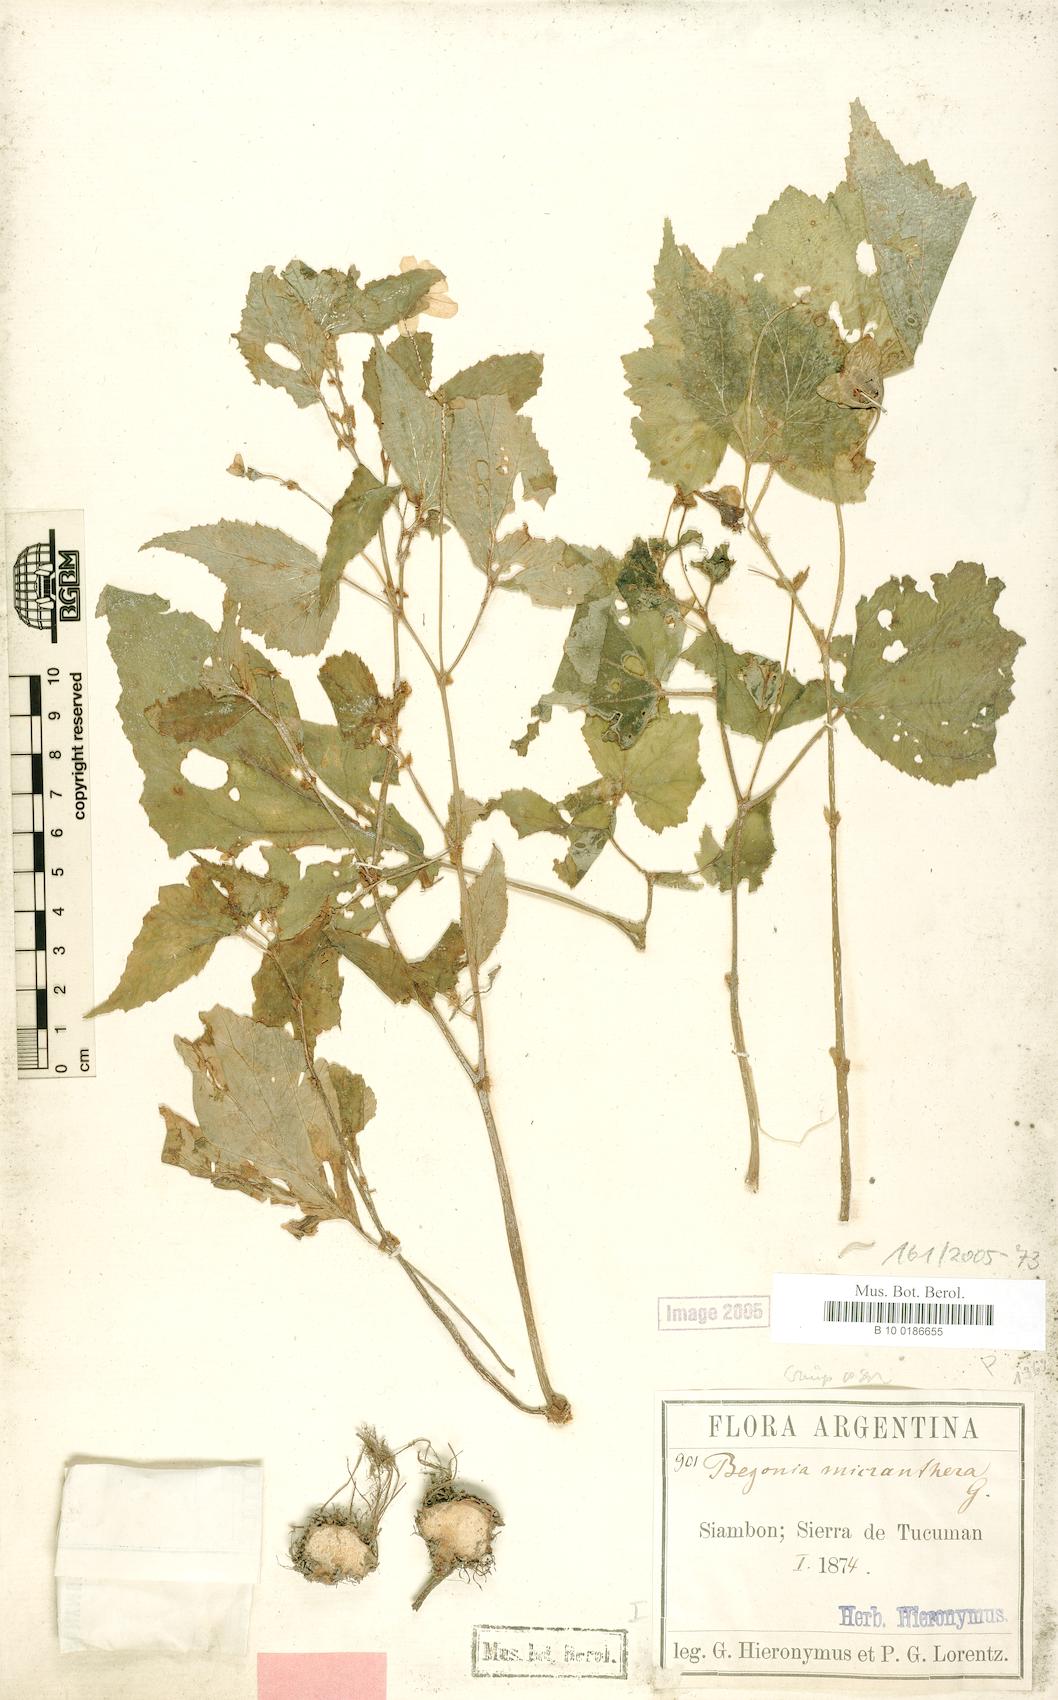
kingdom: Plantae
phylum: Tracheophyta
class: Magnoliopsida
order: Cucurbitales
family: Begoniaceae
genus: Begonia
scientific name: Begonia micranthera
